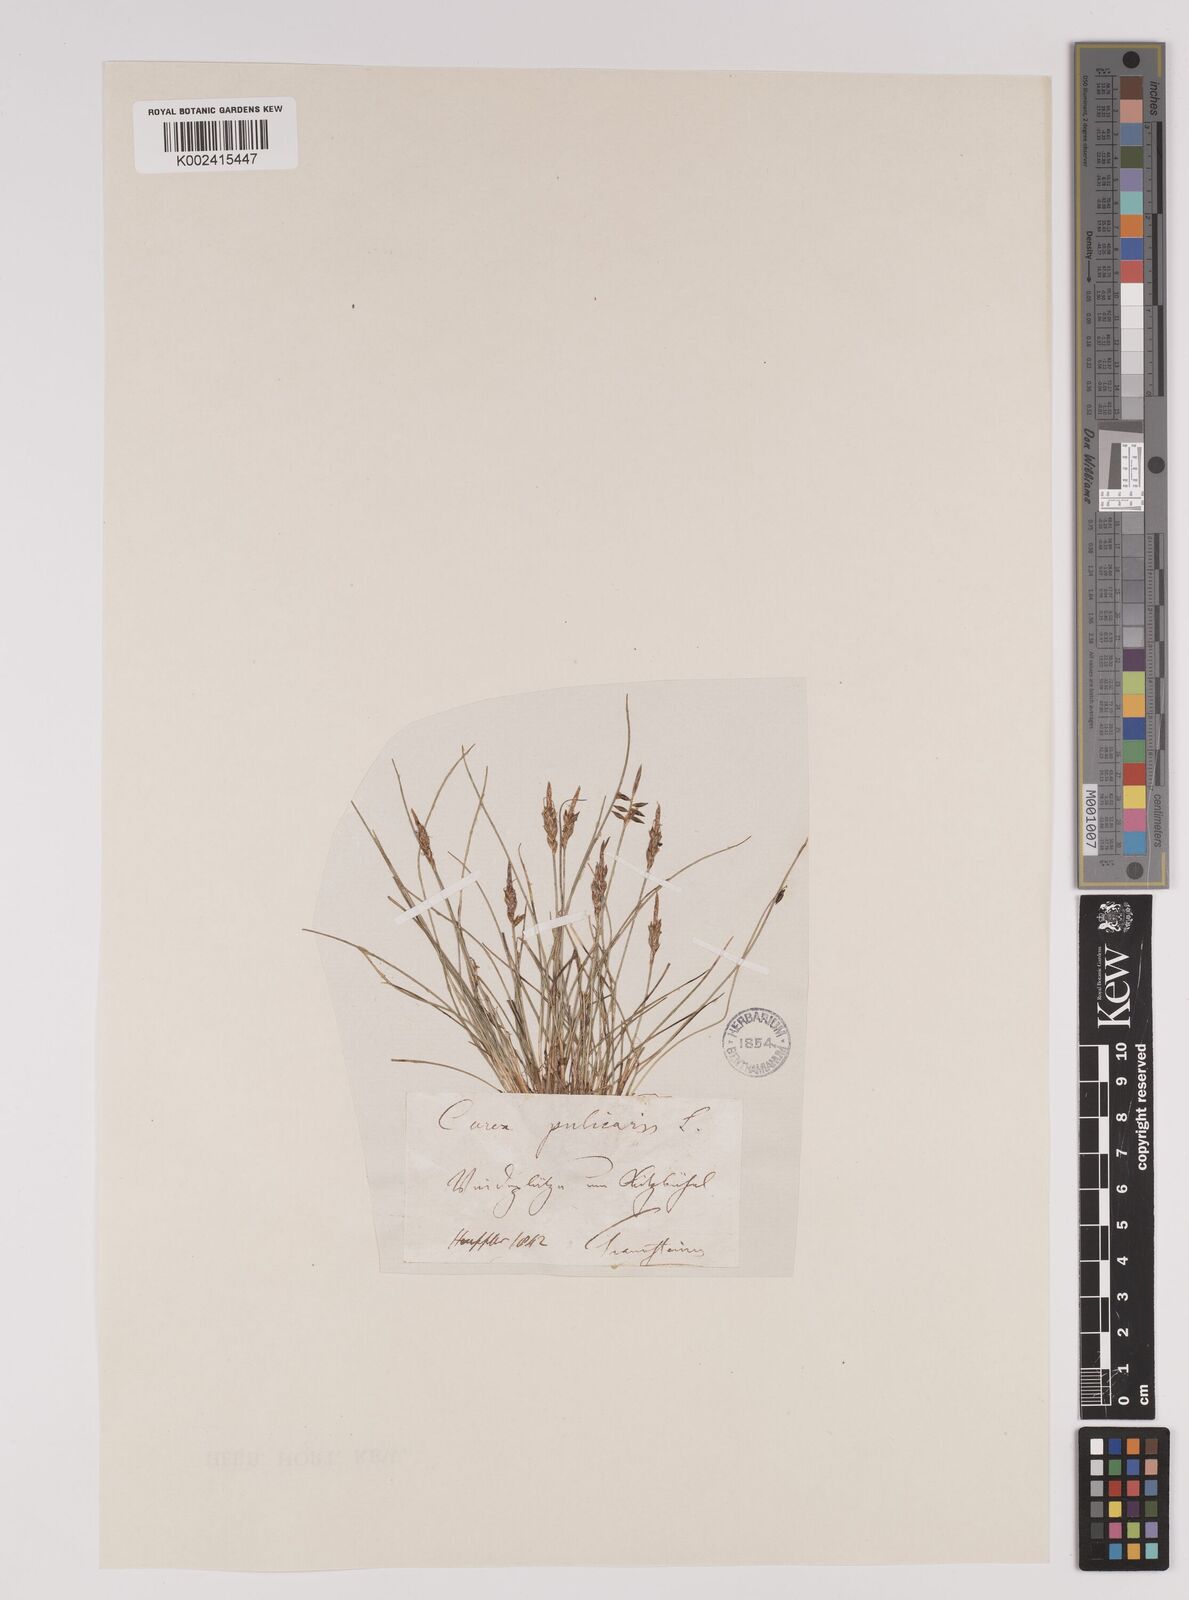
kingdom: Plantae
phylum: Tracheophyta
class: Liliopsida
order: Poales
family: Cyperaceae
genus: Carex
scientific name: Carex pulicaris
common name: Flea sedge
